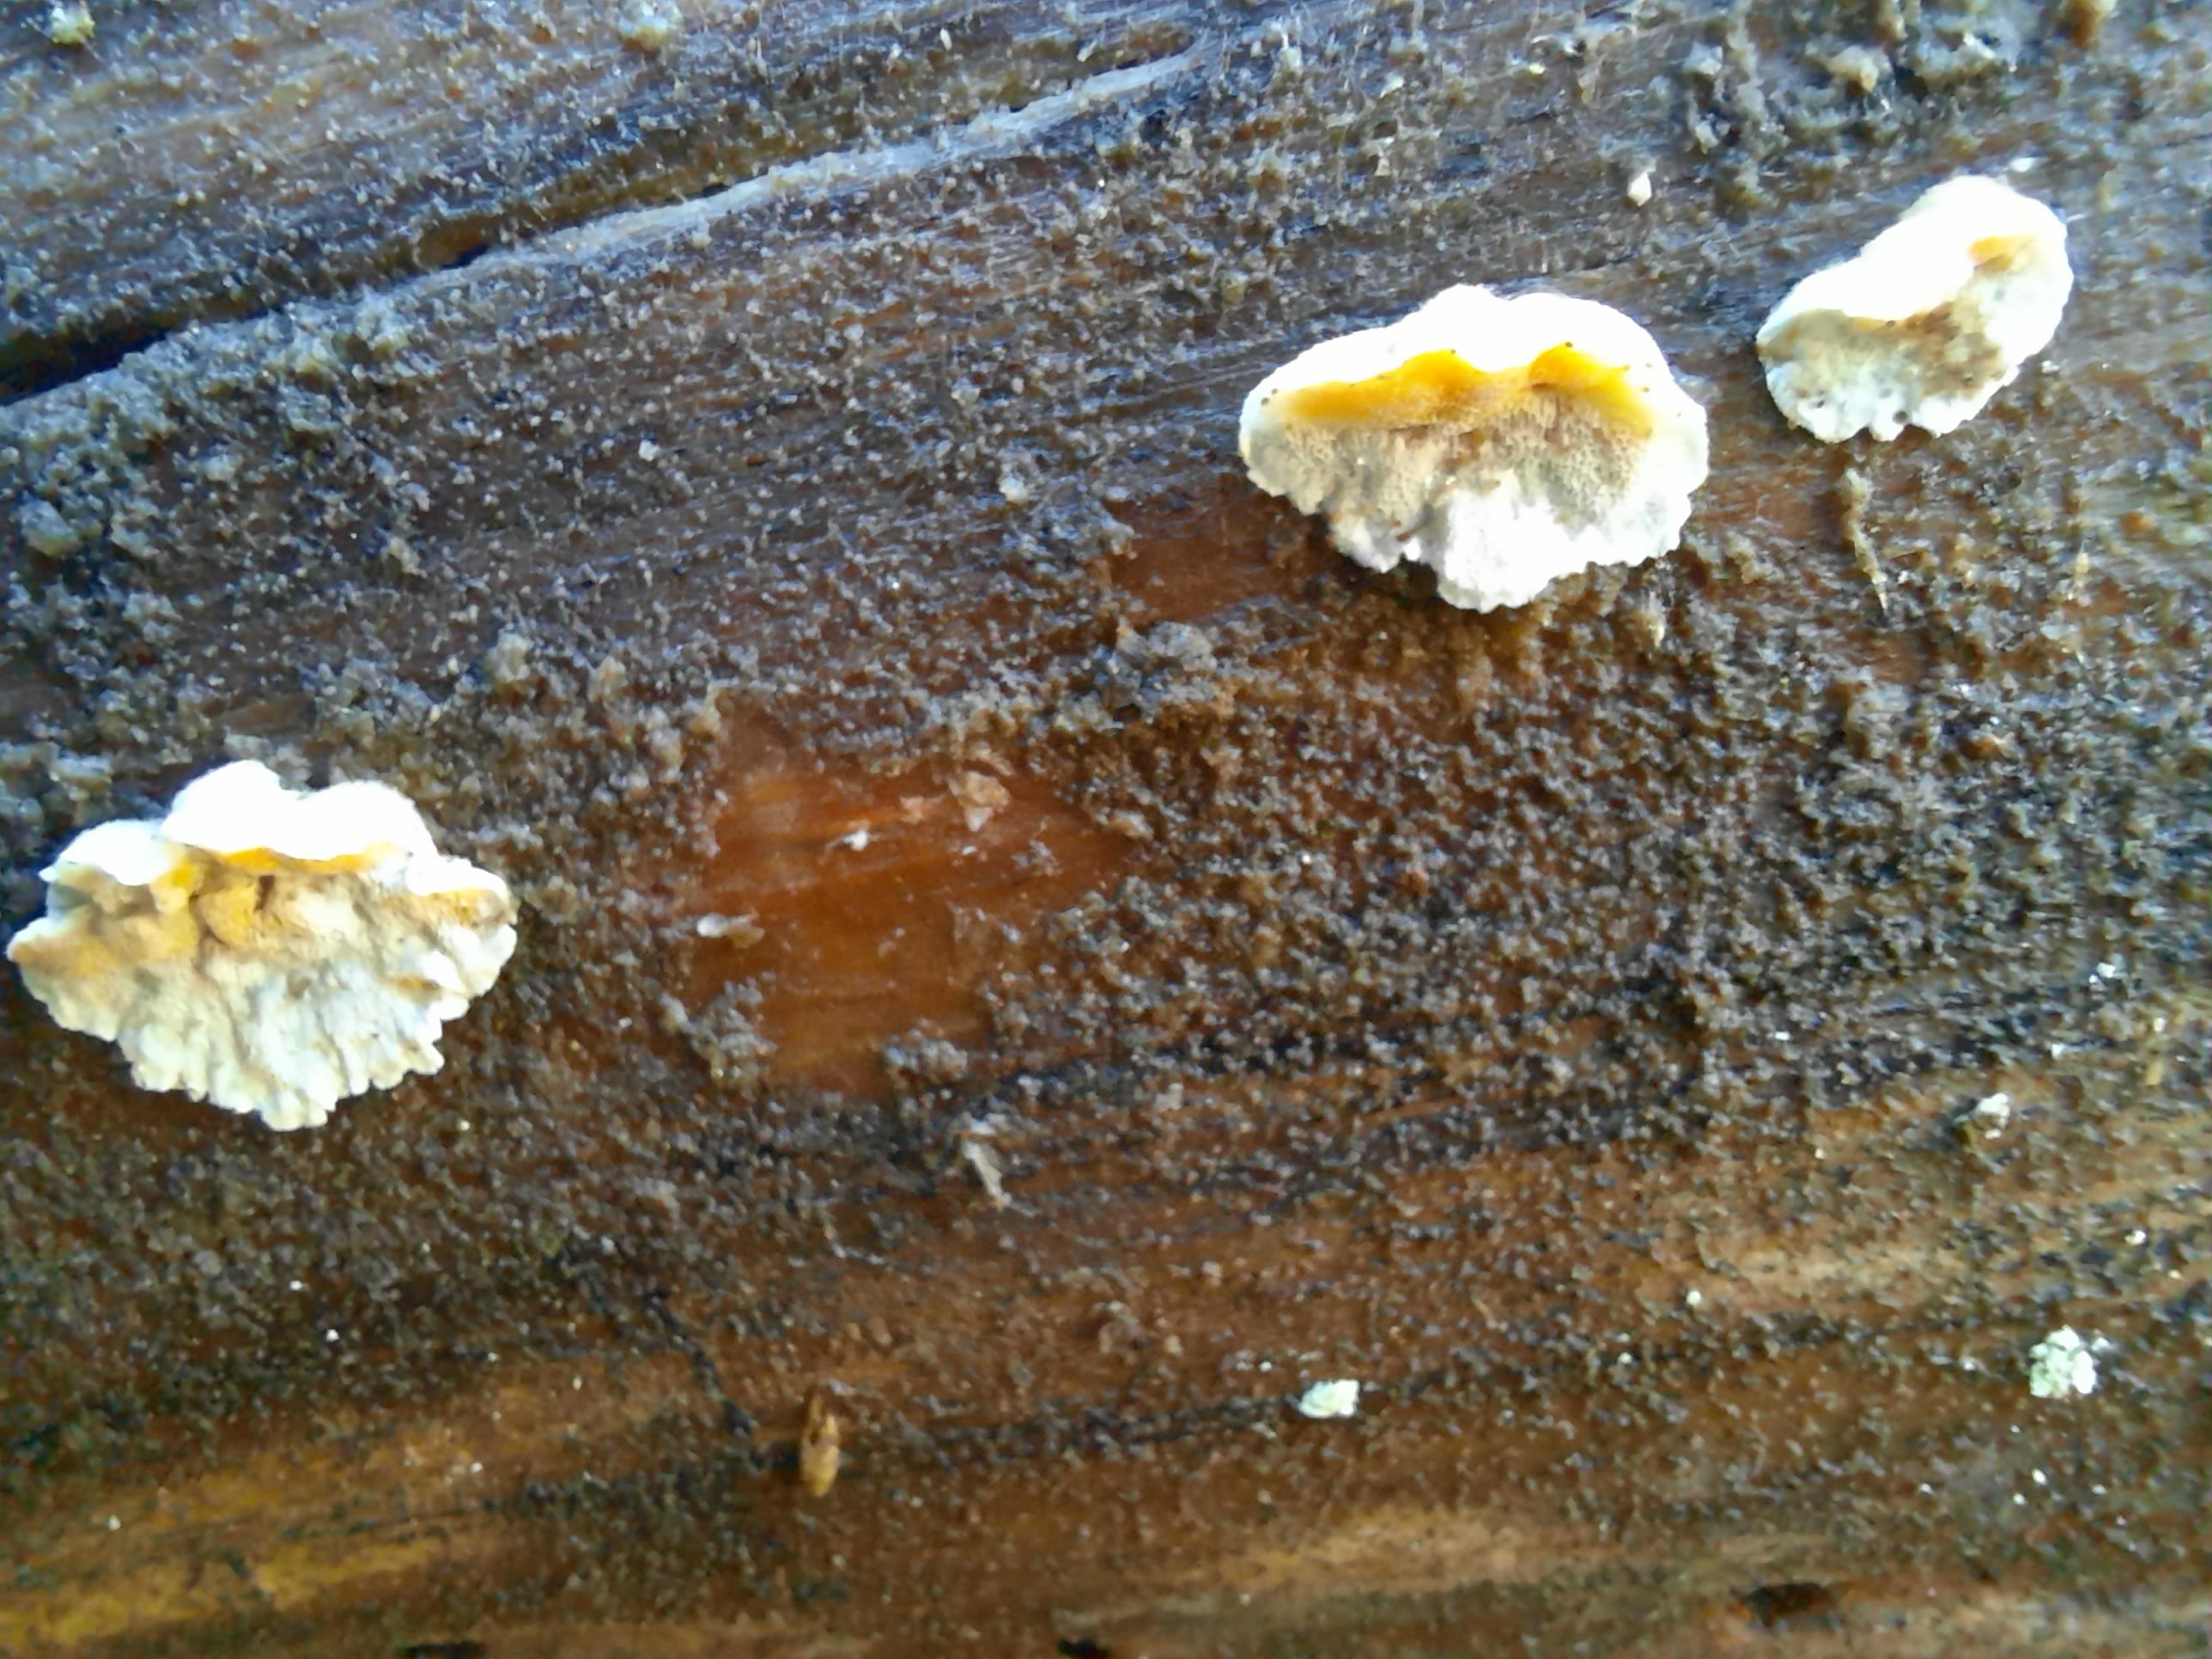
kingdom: Fungi
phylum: Basidiomycota
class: Agaricomycetes
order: Polyporales
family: Incrustoporiaceae
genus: Skeletocutis
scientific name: Skeletocutis amorpha
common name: orange krystalporesvamp
